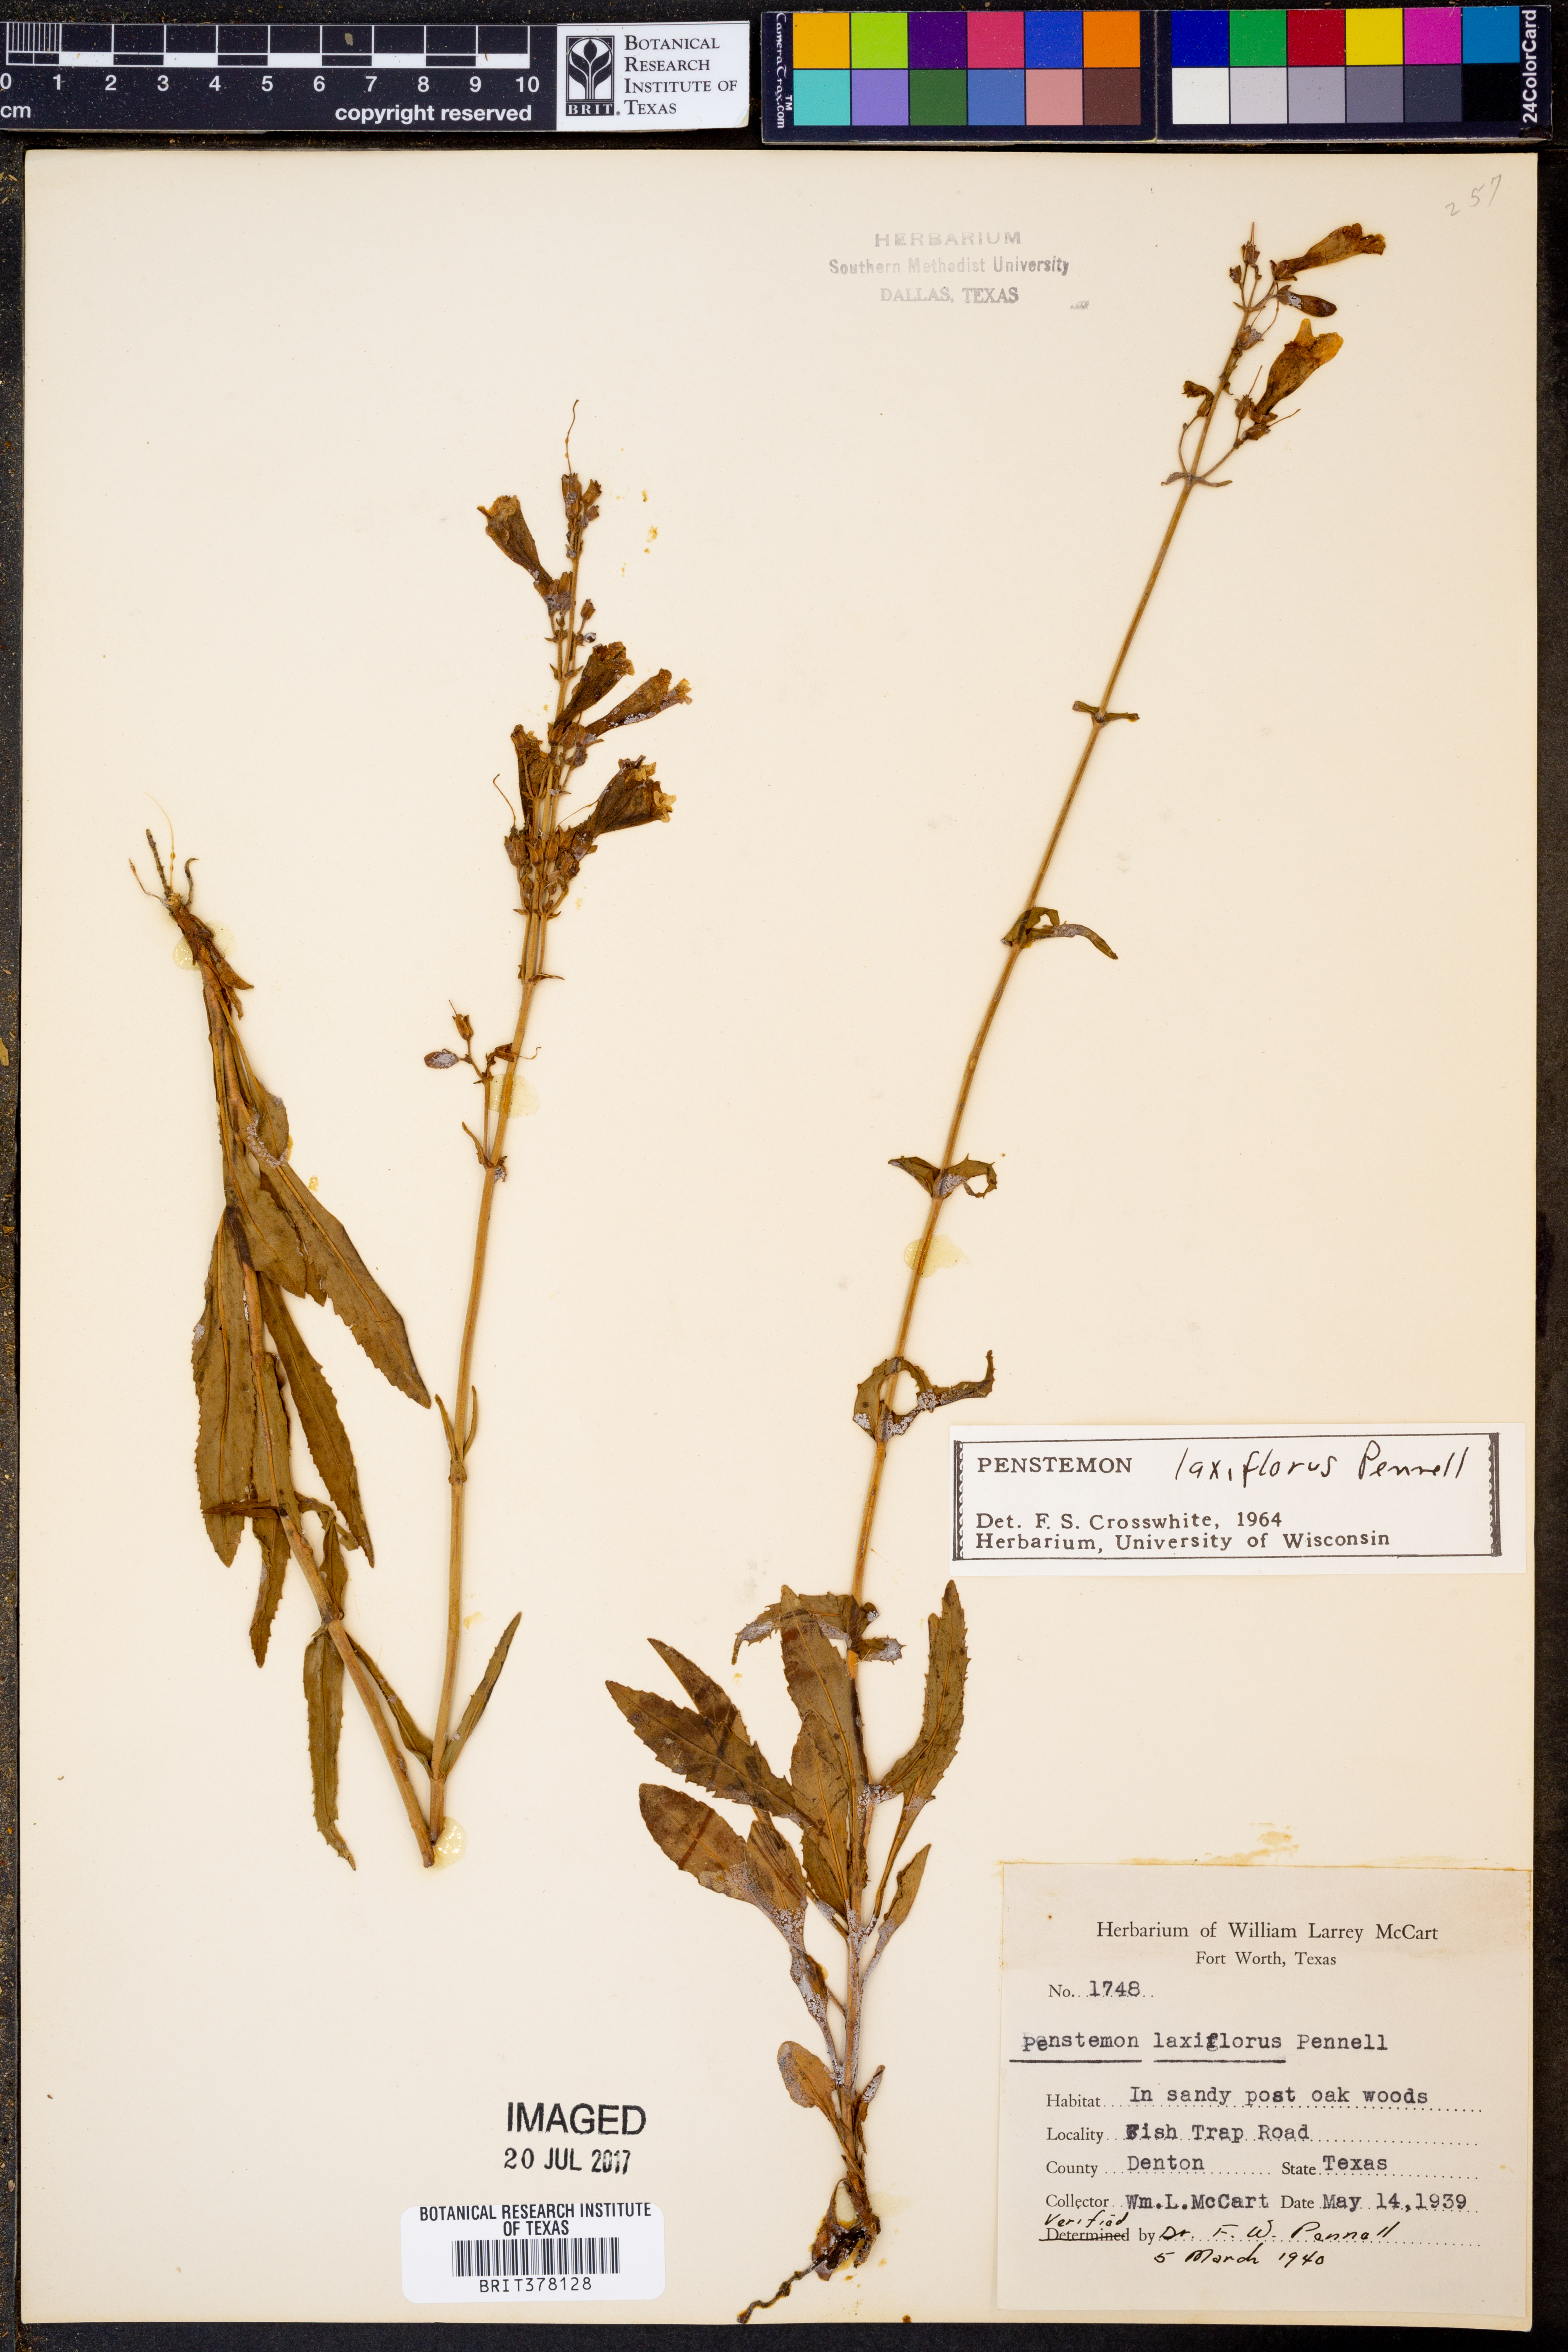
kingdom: Plantae
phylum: Tracheophyta
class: Magnoliopsida
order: Lamiales
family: Plantaginaceae
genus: Penstemon
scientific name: Penstemon laxiflorus
